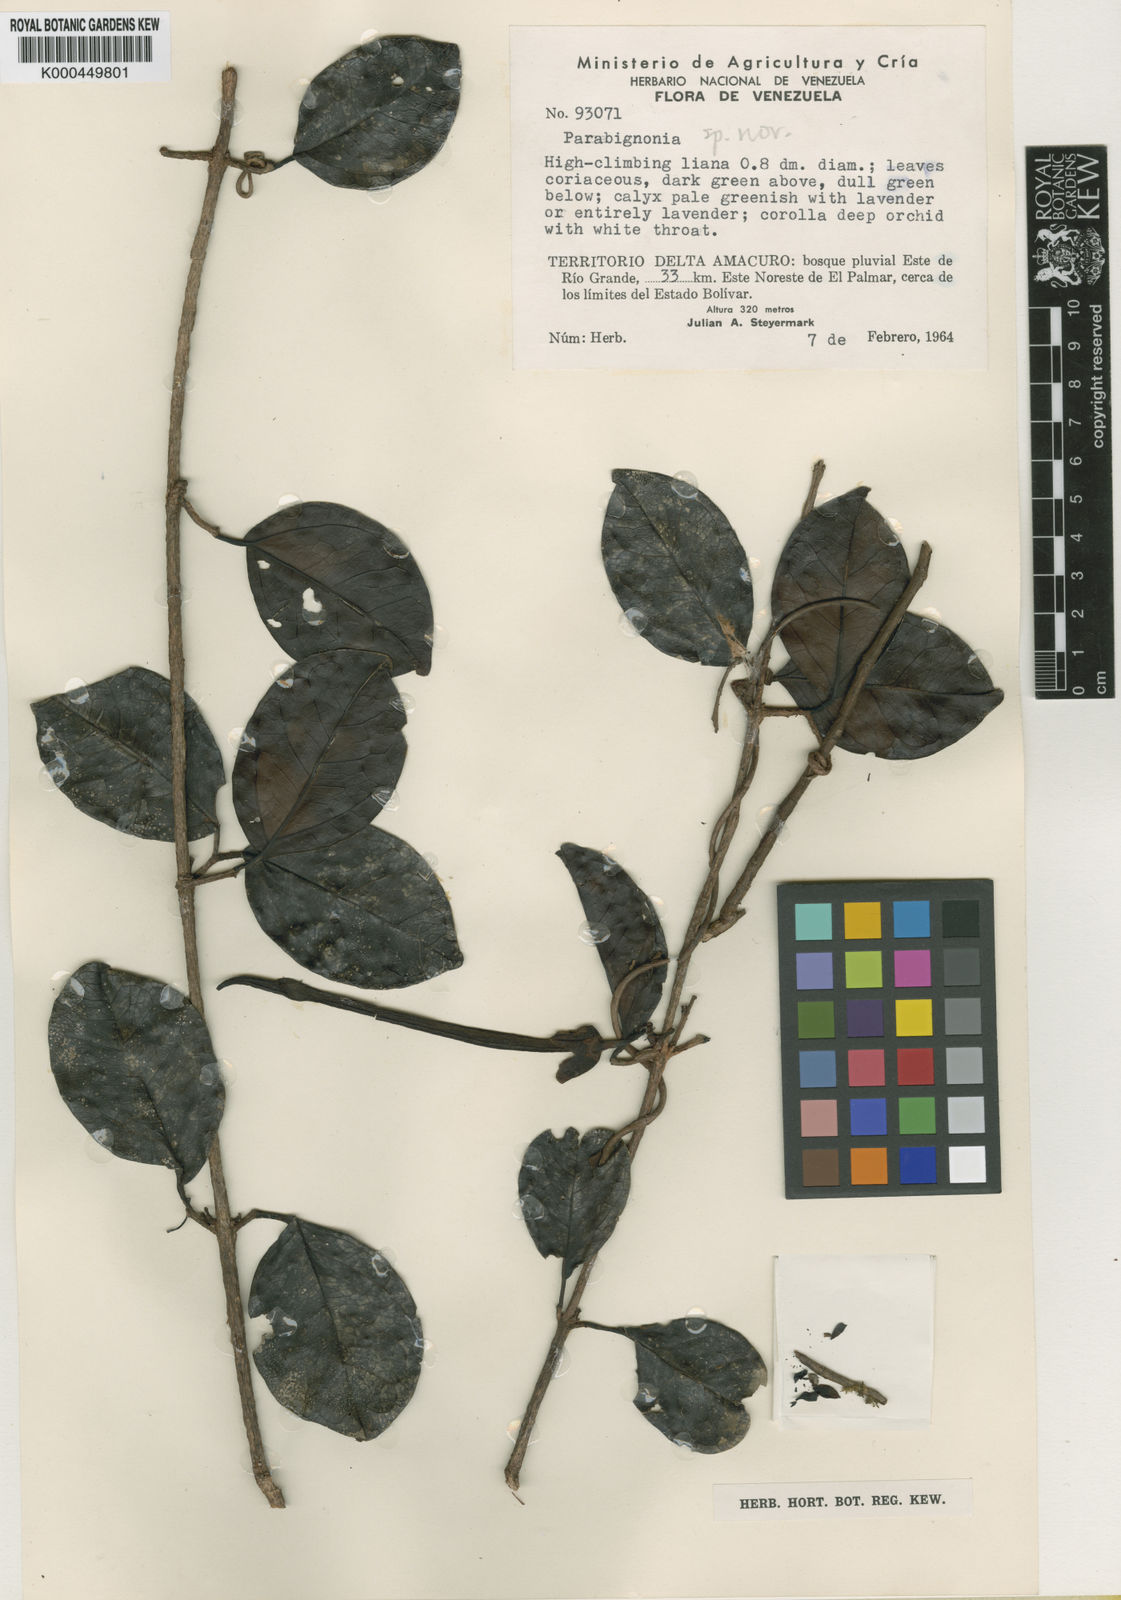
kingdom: Plantae
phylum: Tracheophyta
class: Magnoliopsida
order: Lamiales
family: Bignoniaceae
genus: Dolichandra
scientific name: Dolichandra steyermarkii
